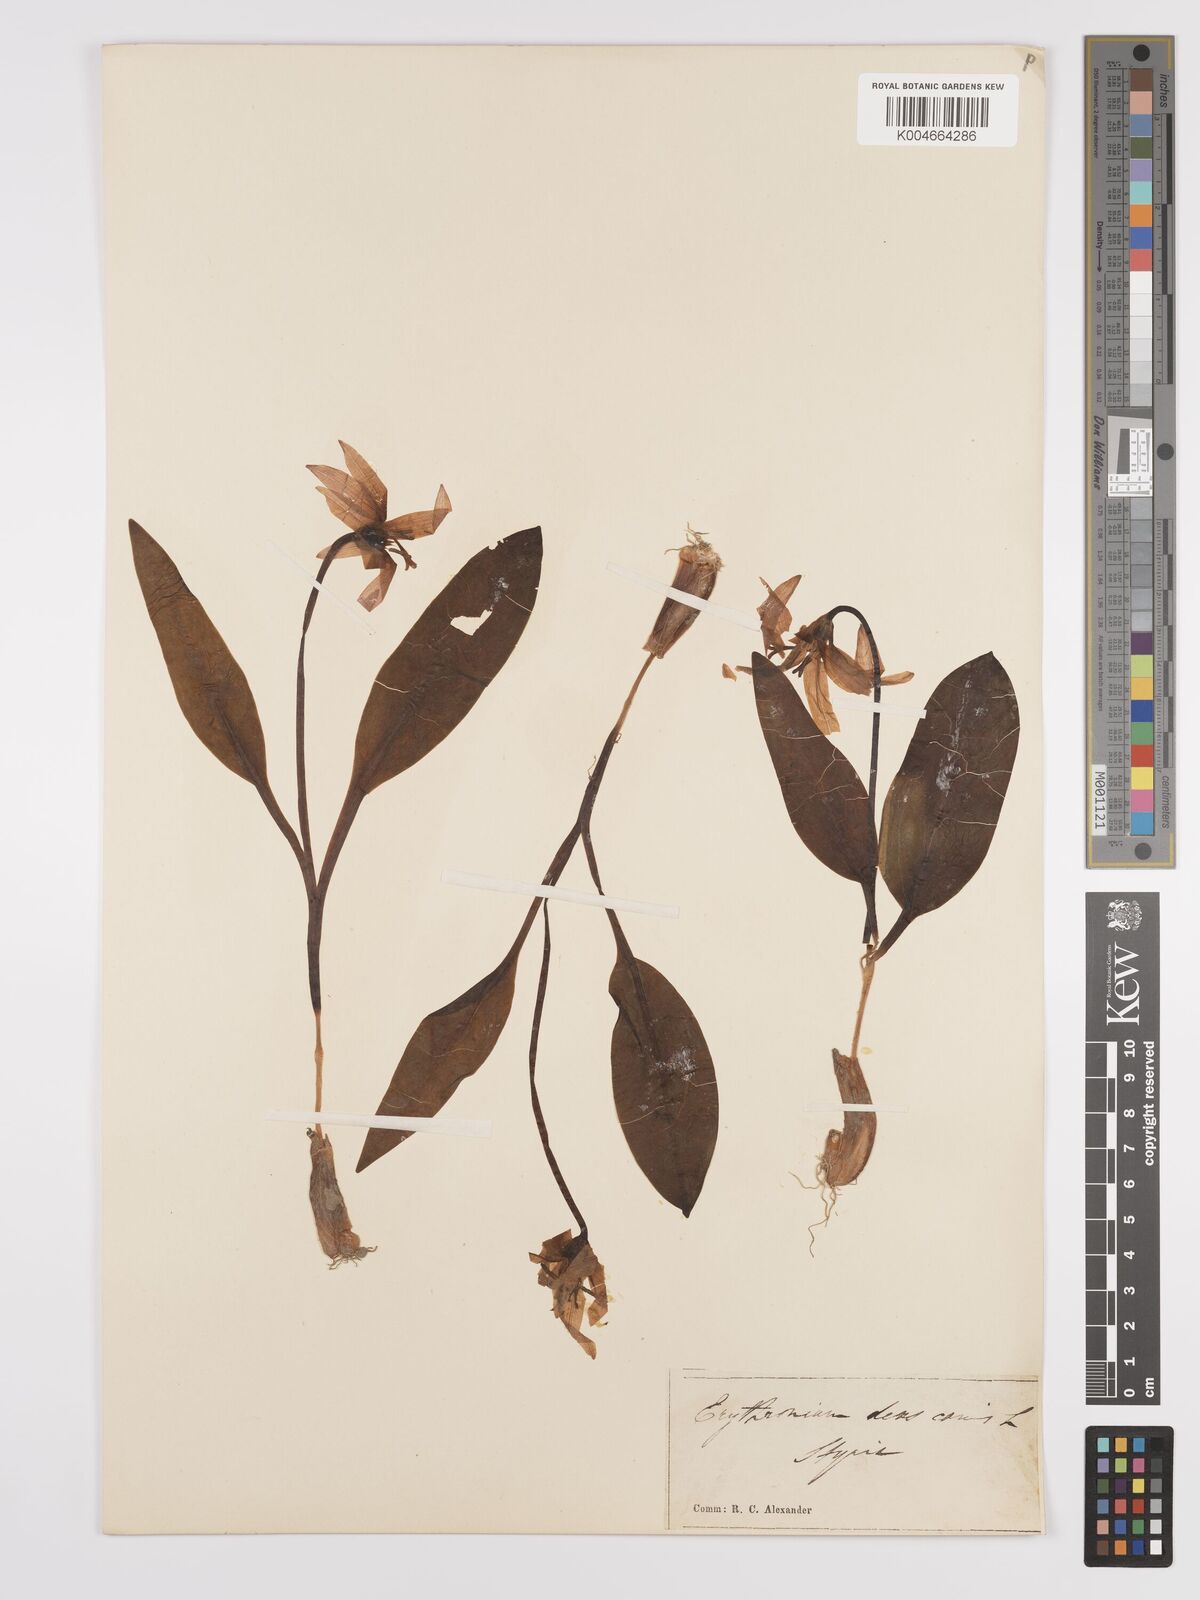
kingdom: Plantae
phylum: Tracheophyta
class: Liliopsida
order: Liliales
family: Liliaceae
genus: Erythronium
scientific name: Erythronium dens-canis
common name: Dog's-tooth-violet
